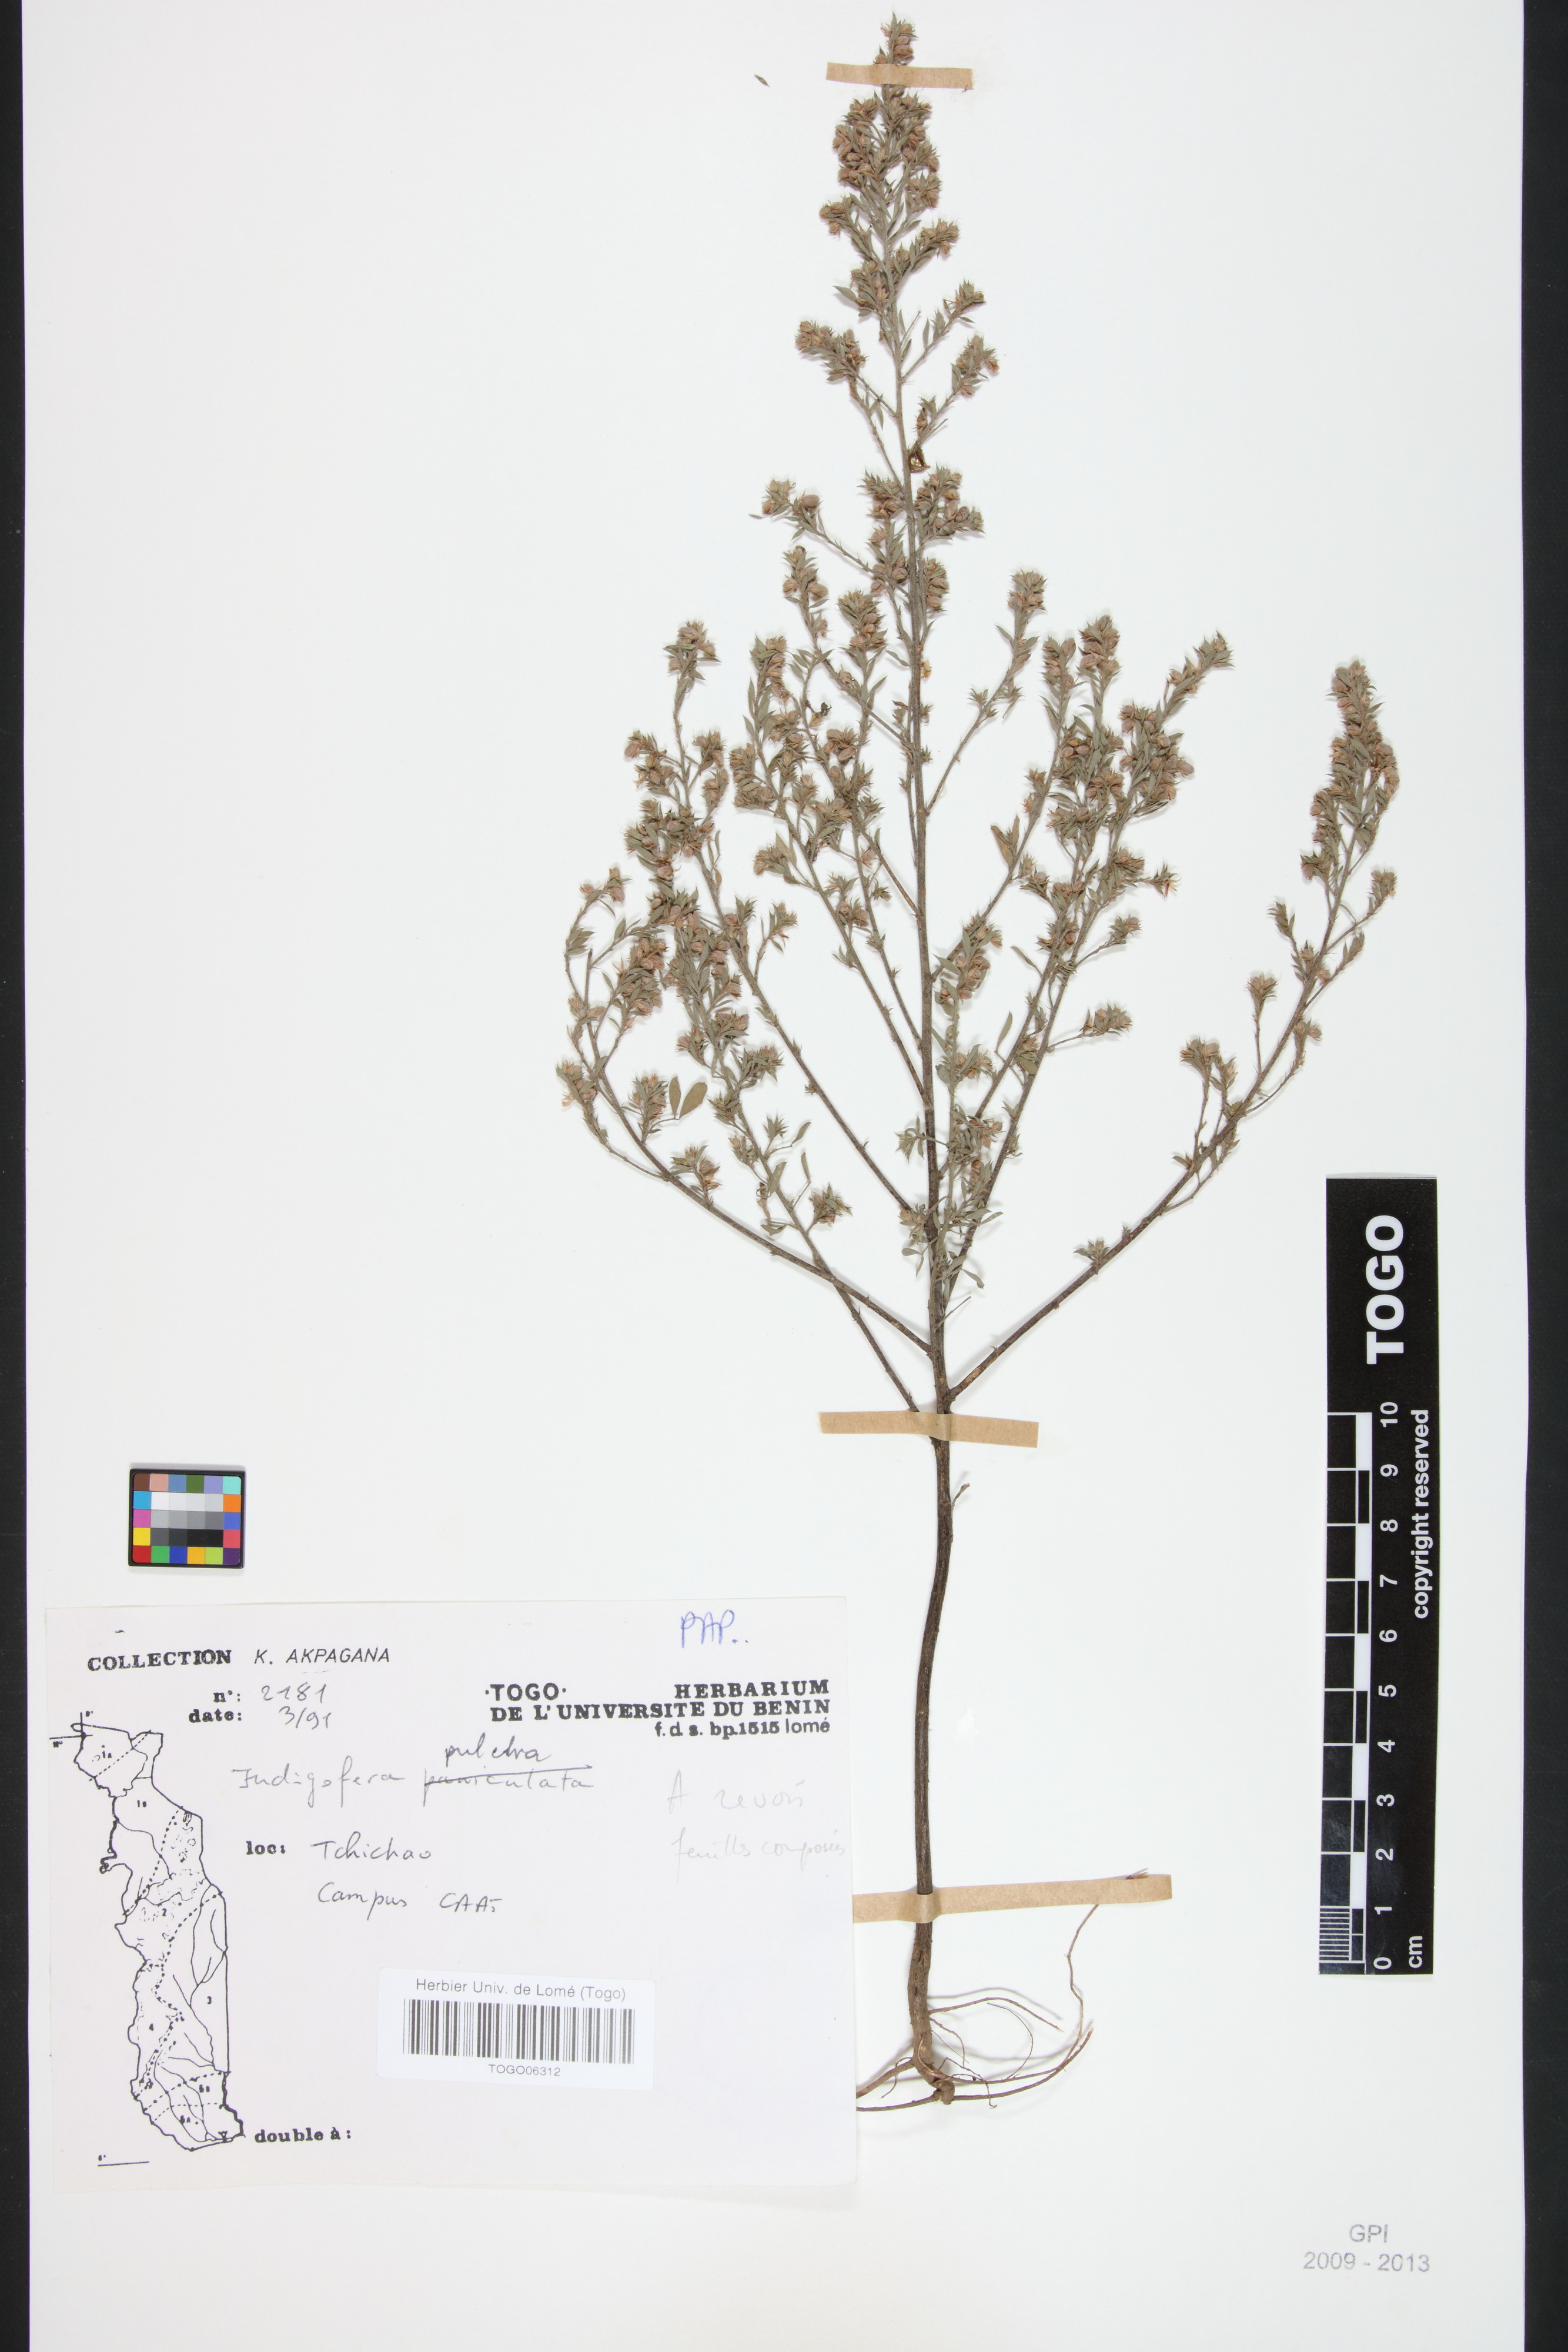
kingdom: Plantae
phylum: Tracheophyta
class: Magnoliopsida
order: Fabales
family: Fabaceae
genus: Indigofera
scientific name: Indigofera pulchra
